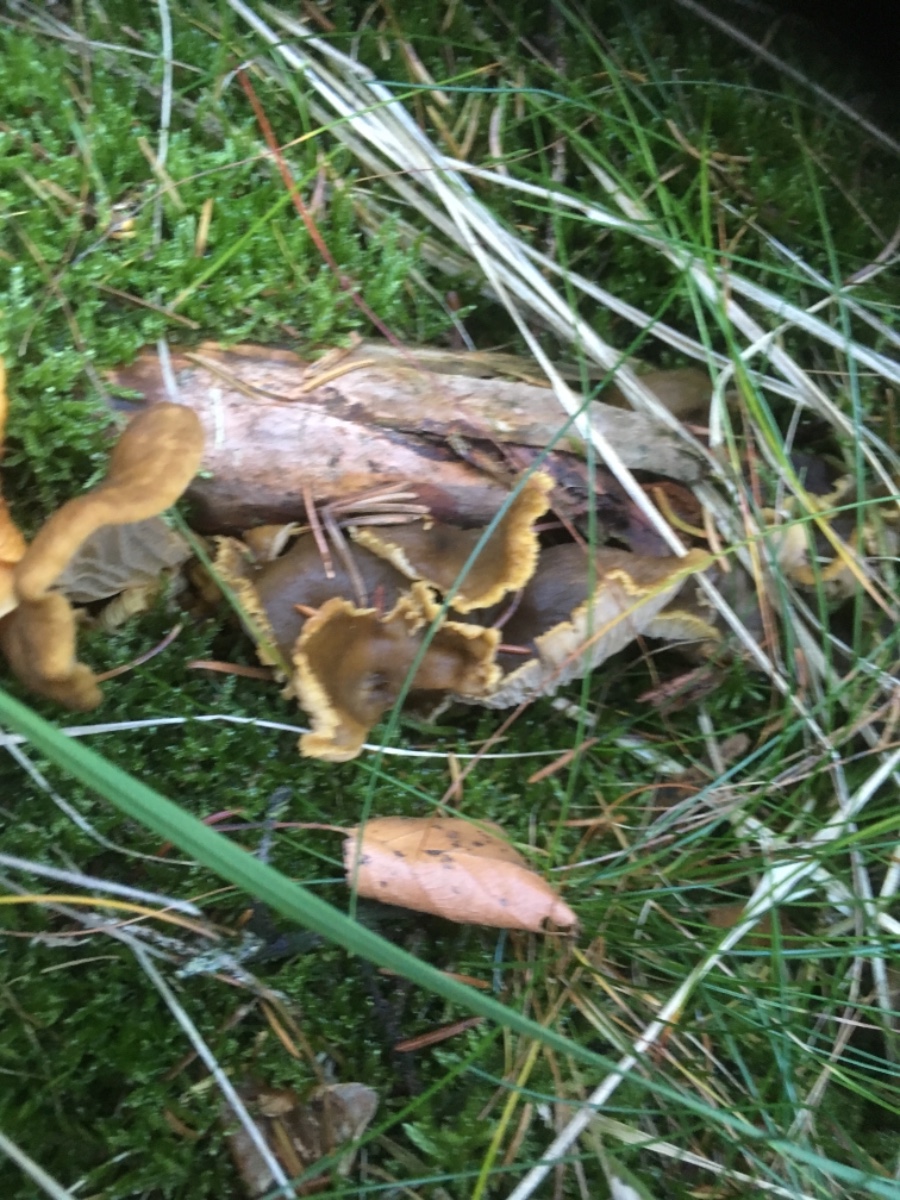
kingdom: Fungi
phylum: Basidiomycota
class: Agaricomycetes
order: Cantharellales
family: Hydnaceae
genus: Craterellus
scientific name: Craterellus tubaeformis
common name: tragt-kantarel
